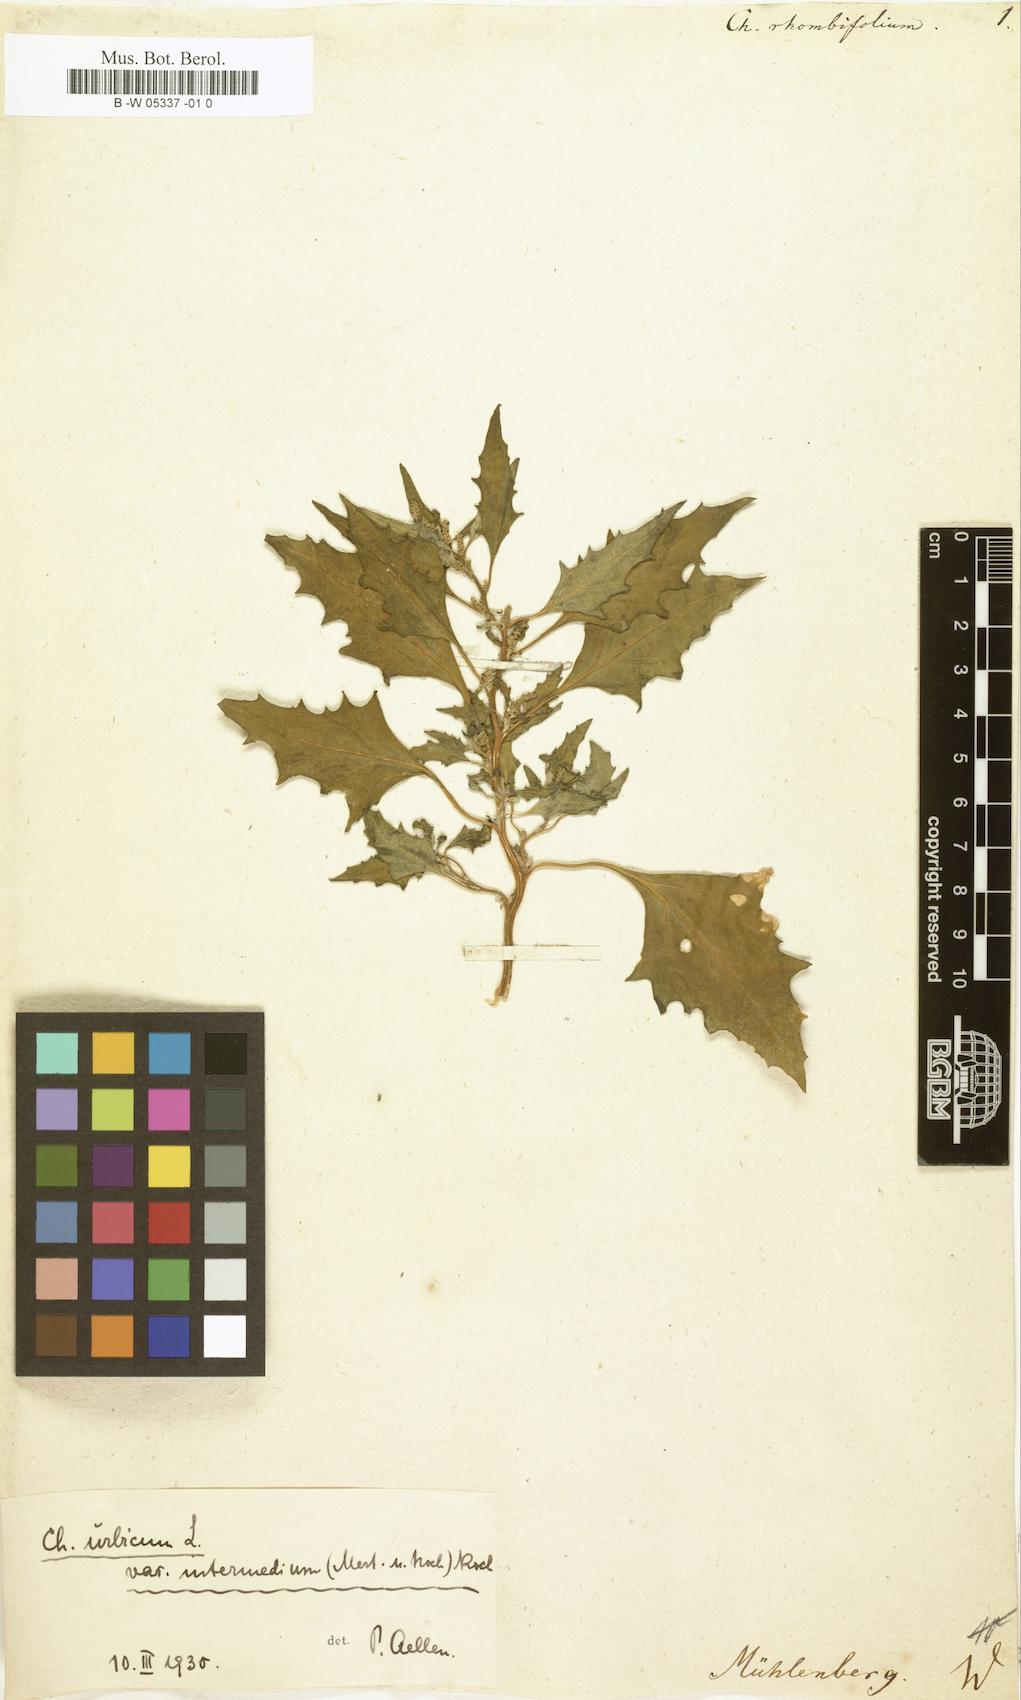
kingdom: Plantae
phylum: Tracheophyta
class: Magnoliopsida
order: Caryophyllales
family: Amaranthaceae
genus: Oxybasis
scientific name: Oxybasis rhombifolia
